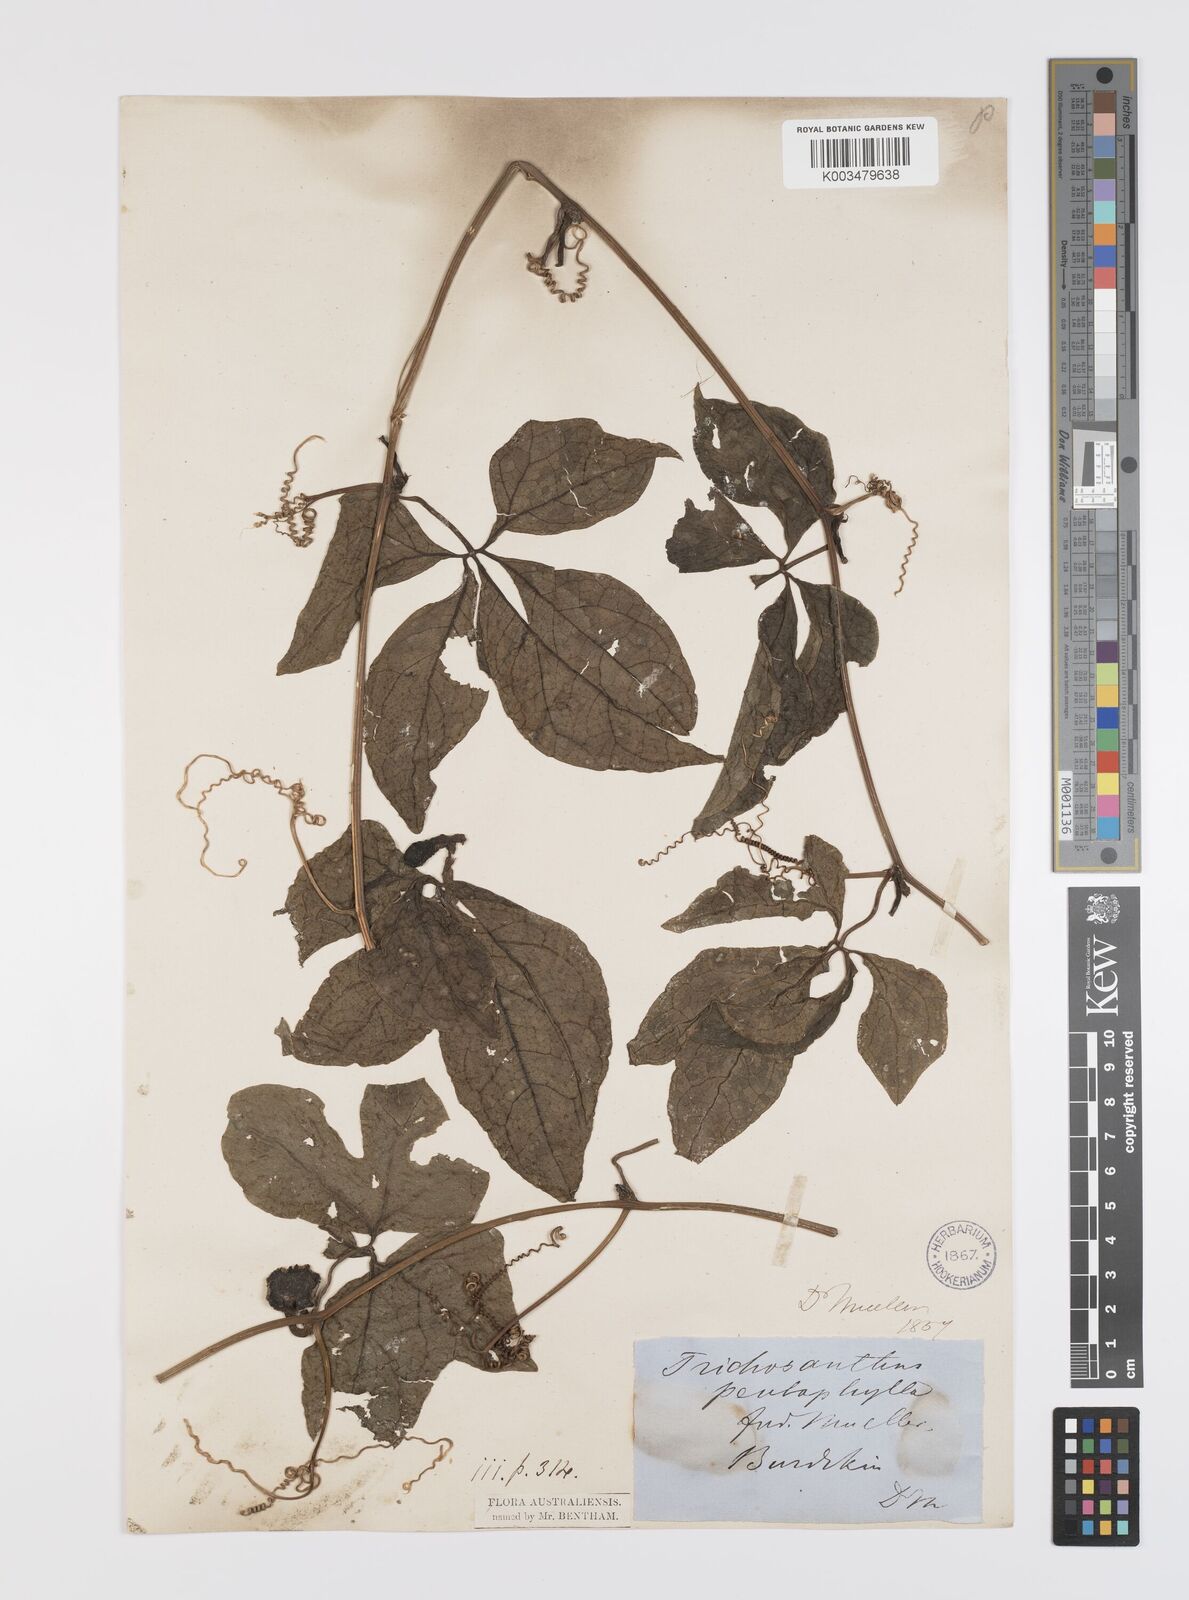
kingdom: Plantae
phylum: Tracheophyta
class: Magnoliopsida
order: Cucurbitales
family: Cucurbitaceae
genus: Trichosanthes
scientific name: Trichosanthes pentaphylla
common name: Red gourd
